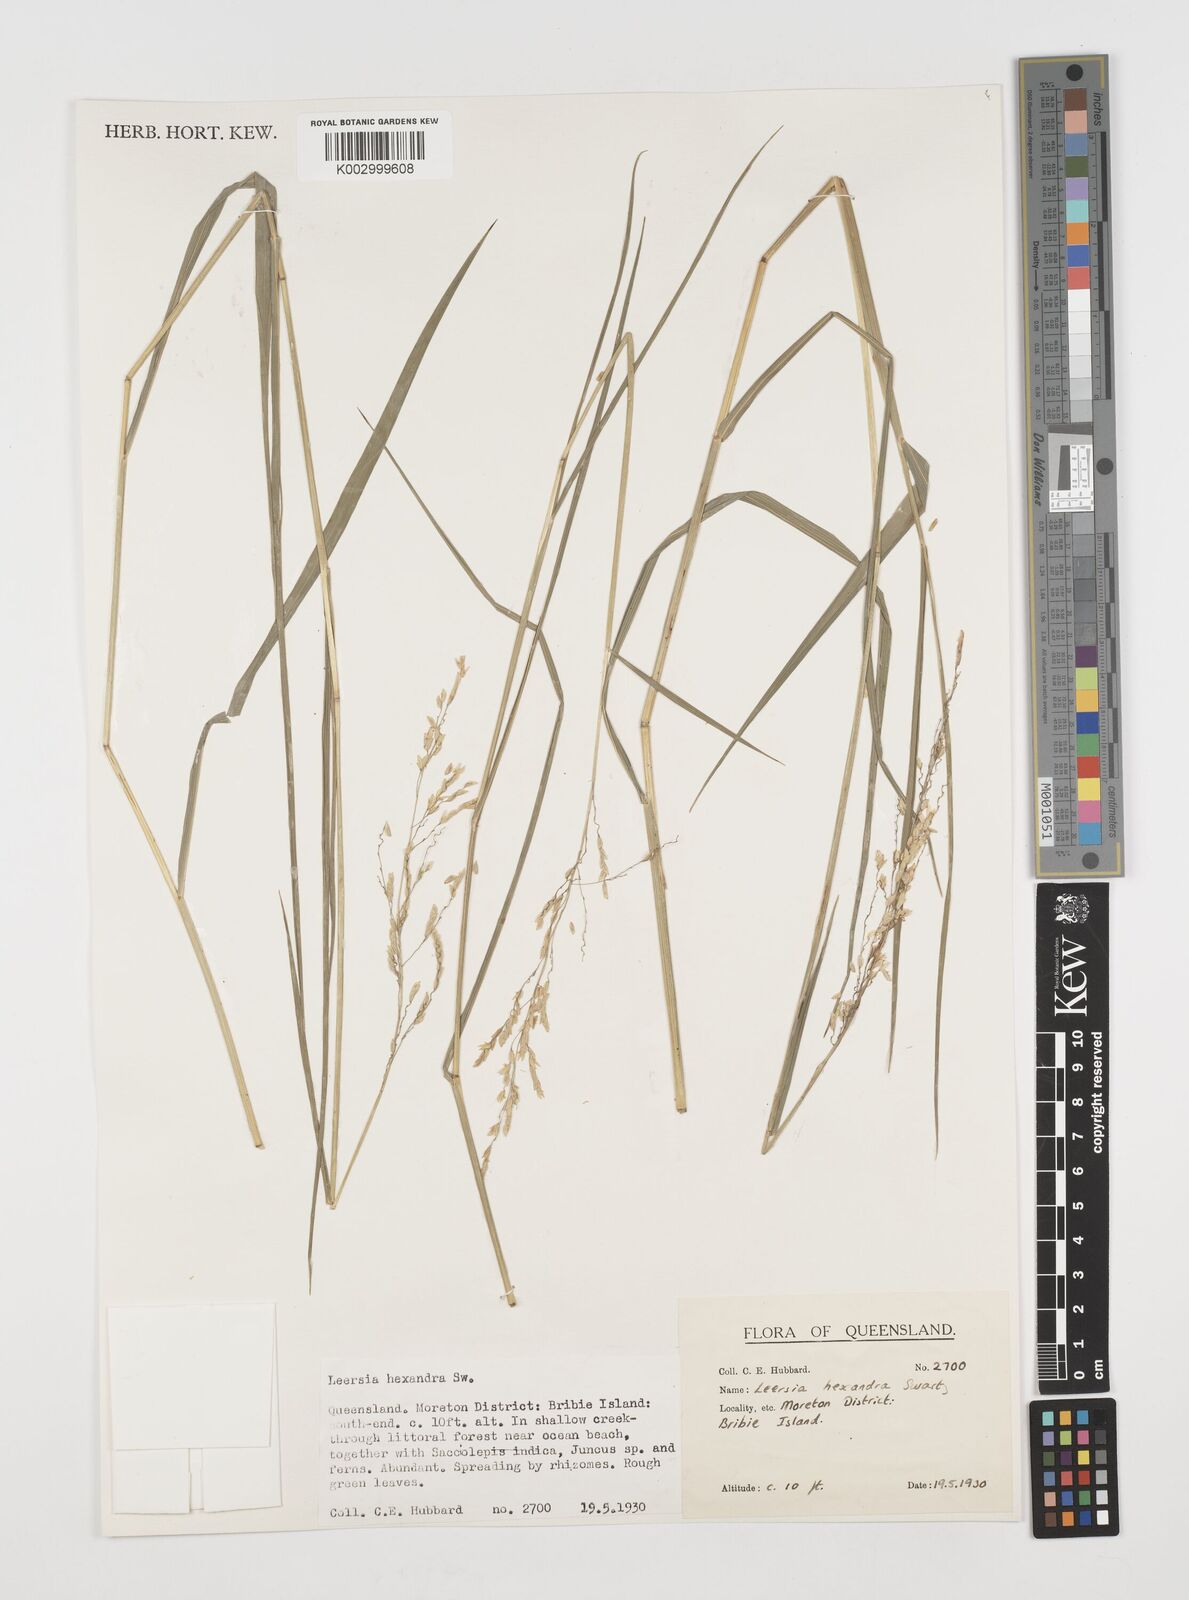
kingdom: Plantae
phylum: Tracheophyta
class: Liliopsida
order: Poales
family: Poaceae
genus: Leersia
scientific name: Leersia hexandra
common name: Southern cut grass
